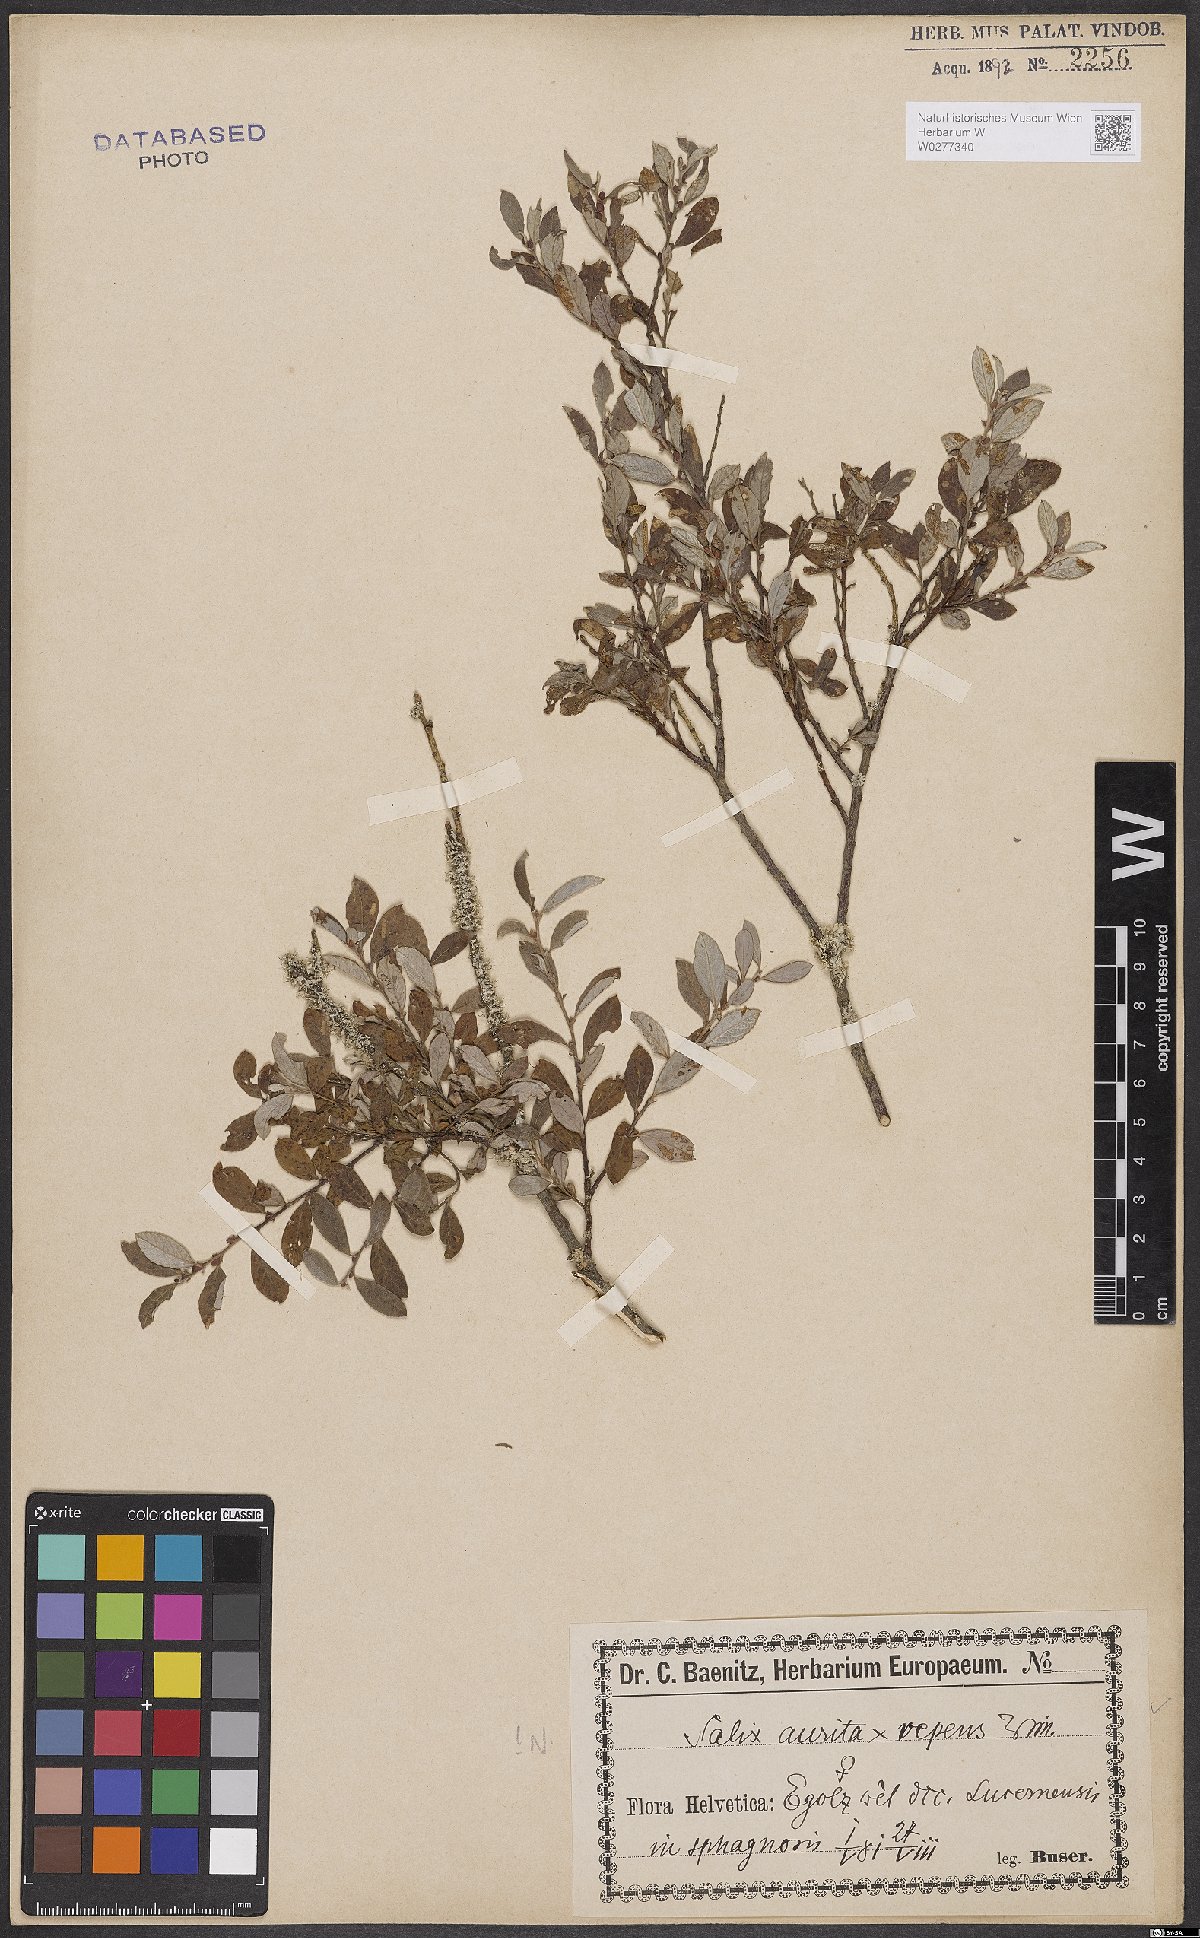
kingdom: Plantae
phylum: Tracheophyta
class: Magnoliopsida
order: Malpighiales
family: Salicaceae
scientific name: Salicaceae
